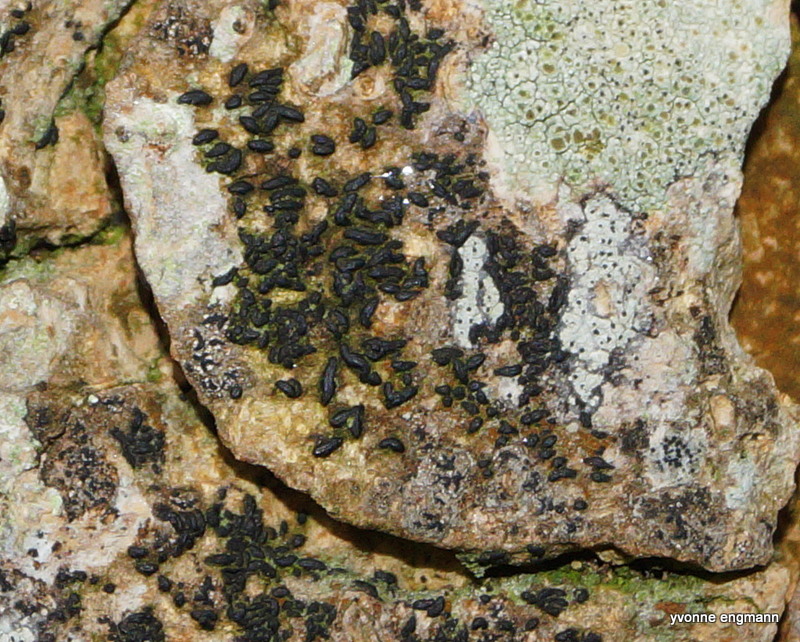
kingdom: Fungi
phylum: Ascomycota
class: Dothideomycetes
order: Hysteriales
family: Hysteriaceae
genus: Hysterium
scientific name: Hysterium acuminatum
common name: almindelig kulmund
